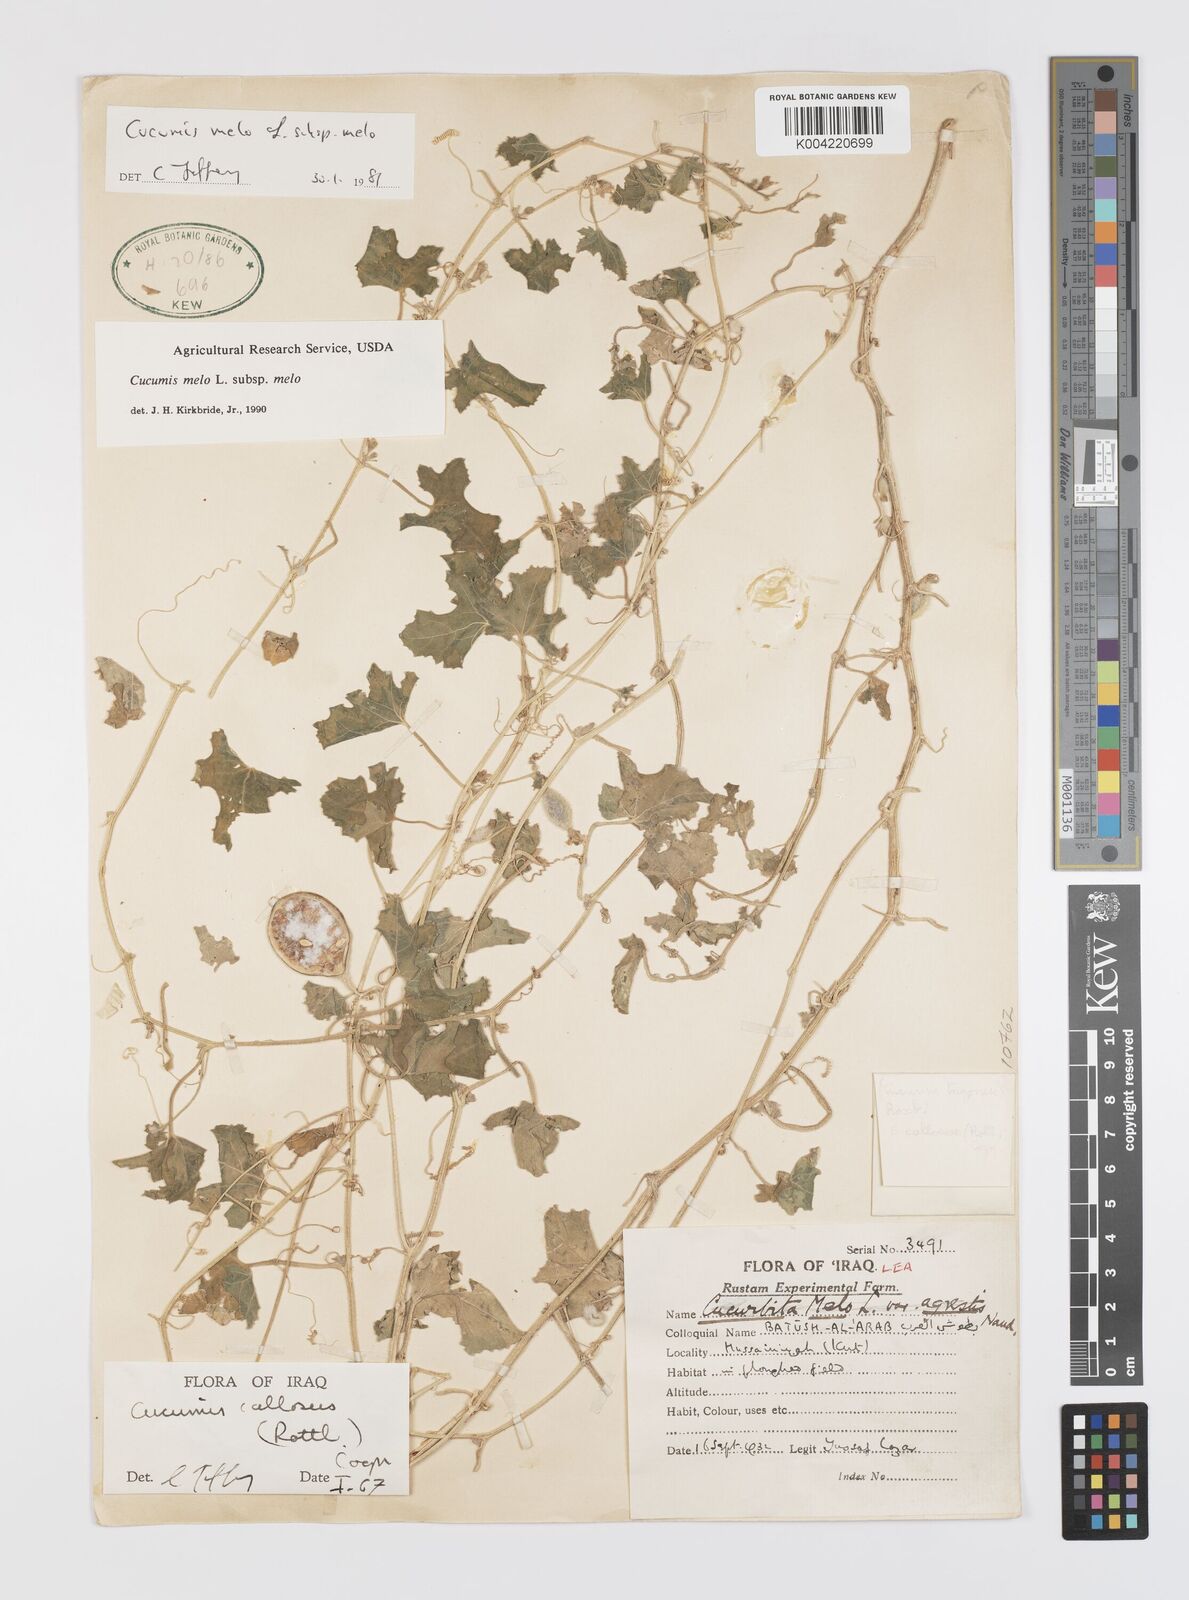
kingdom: Plantae
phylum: Tracheophyta
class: Magnoliopsida
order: Cucurbitales
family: Cucurbitaceae
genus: Cucumis
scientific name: Cucumis melo
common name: Melon
